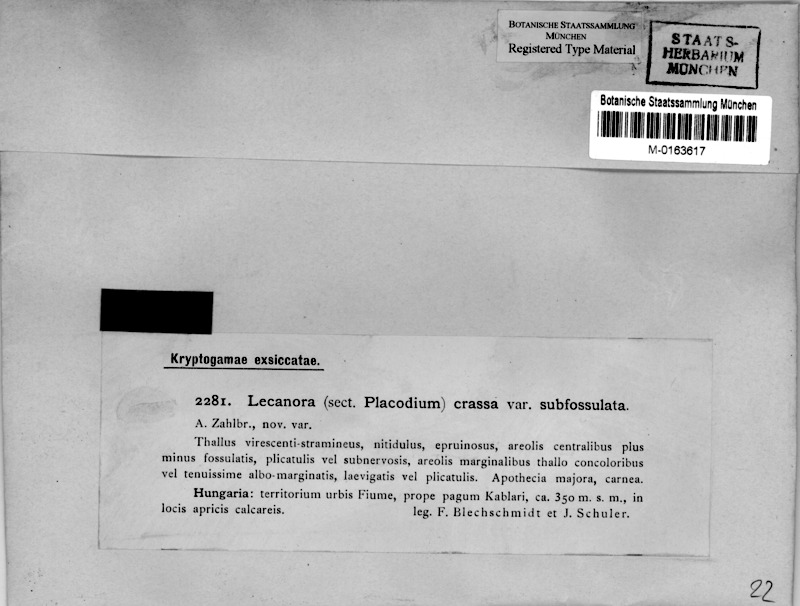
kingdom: Fungi
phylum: Ascomycota
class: Lecanoromycetes
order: Lecanorales
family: Stereocaulaceae
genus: Squamarina
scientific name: Squamarina cartilaginea
